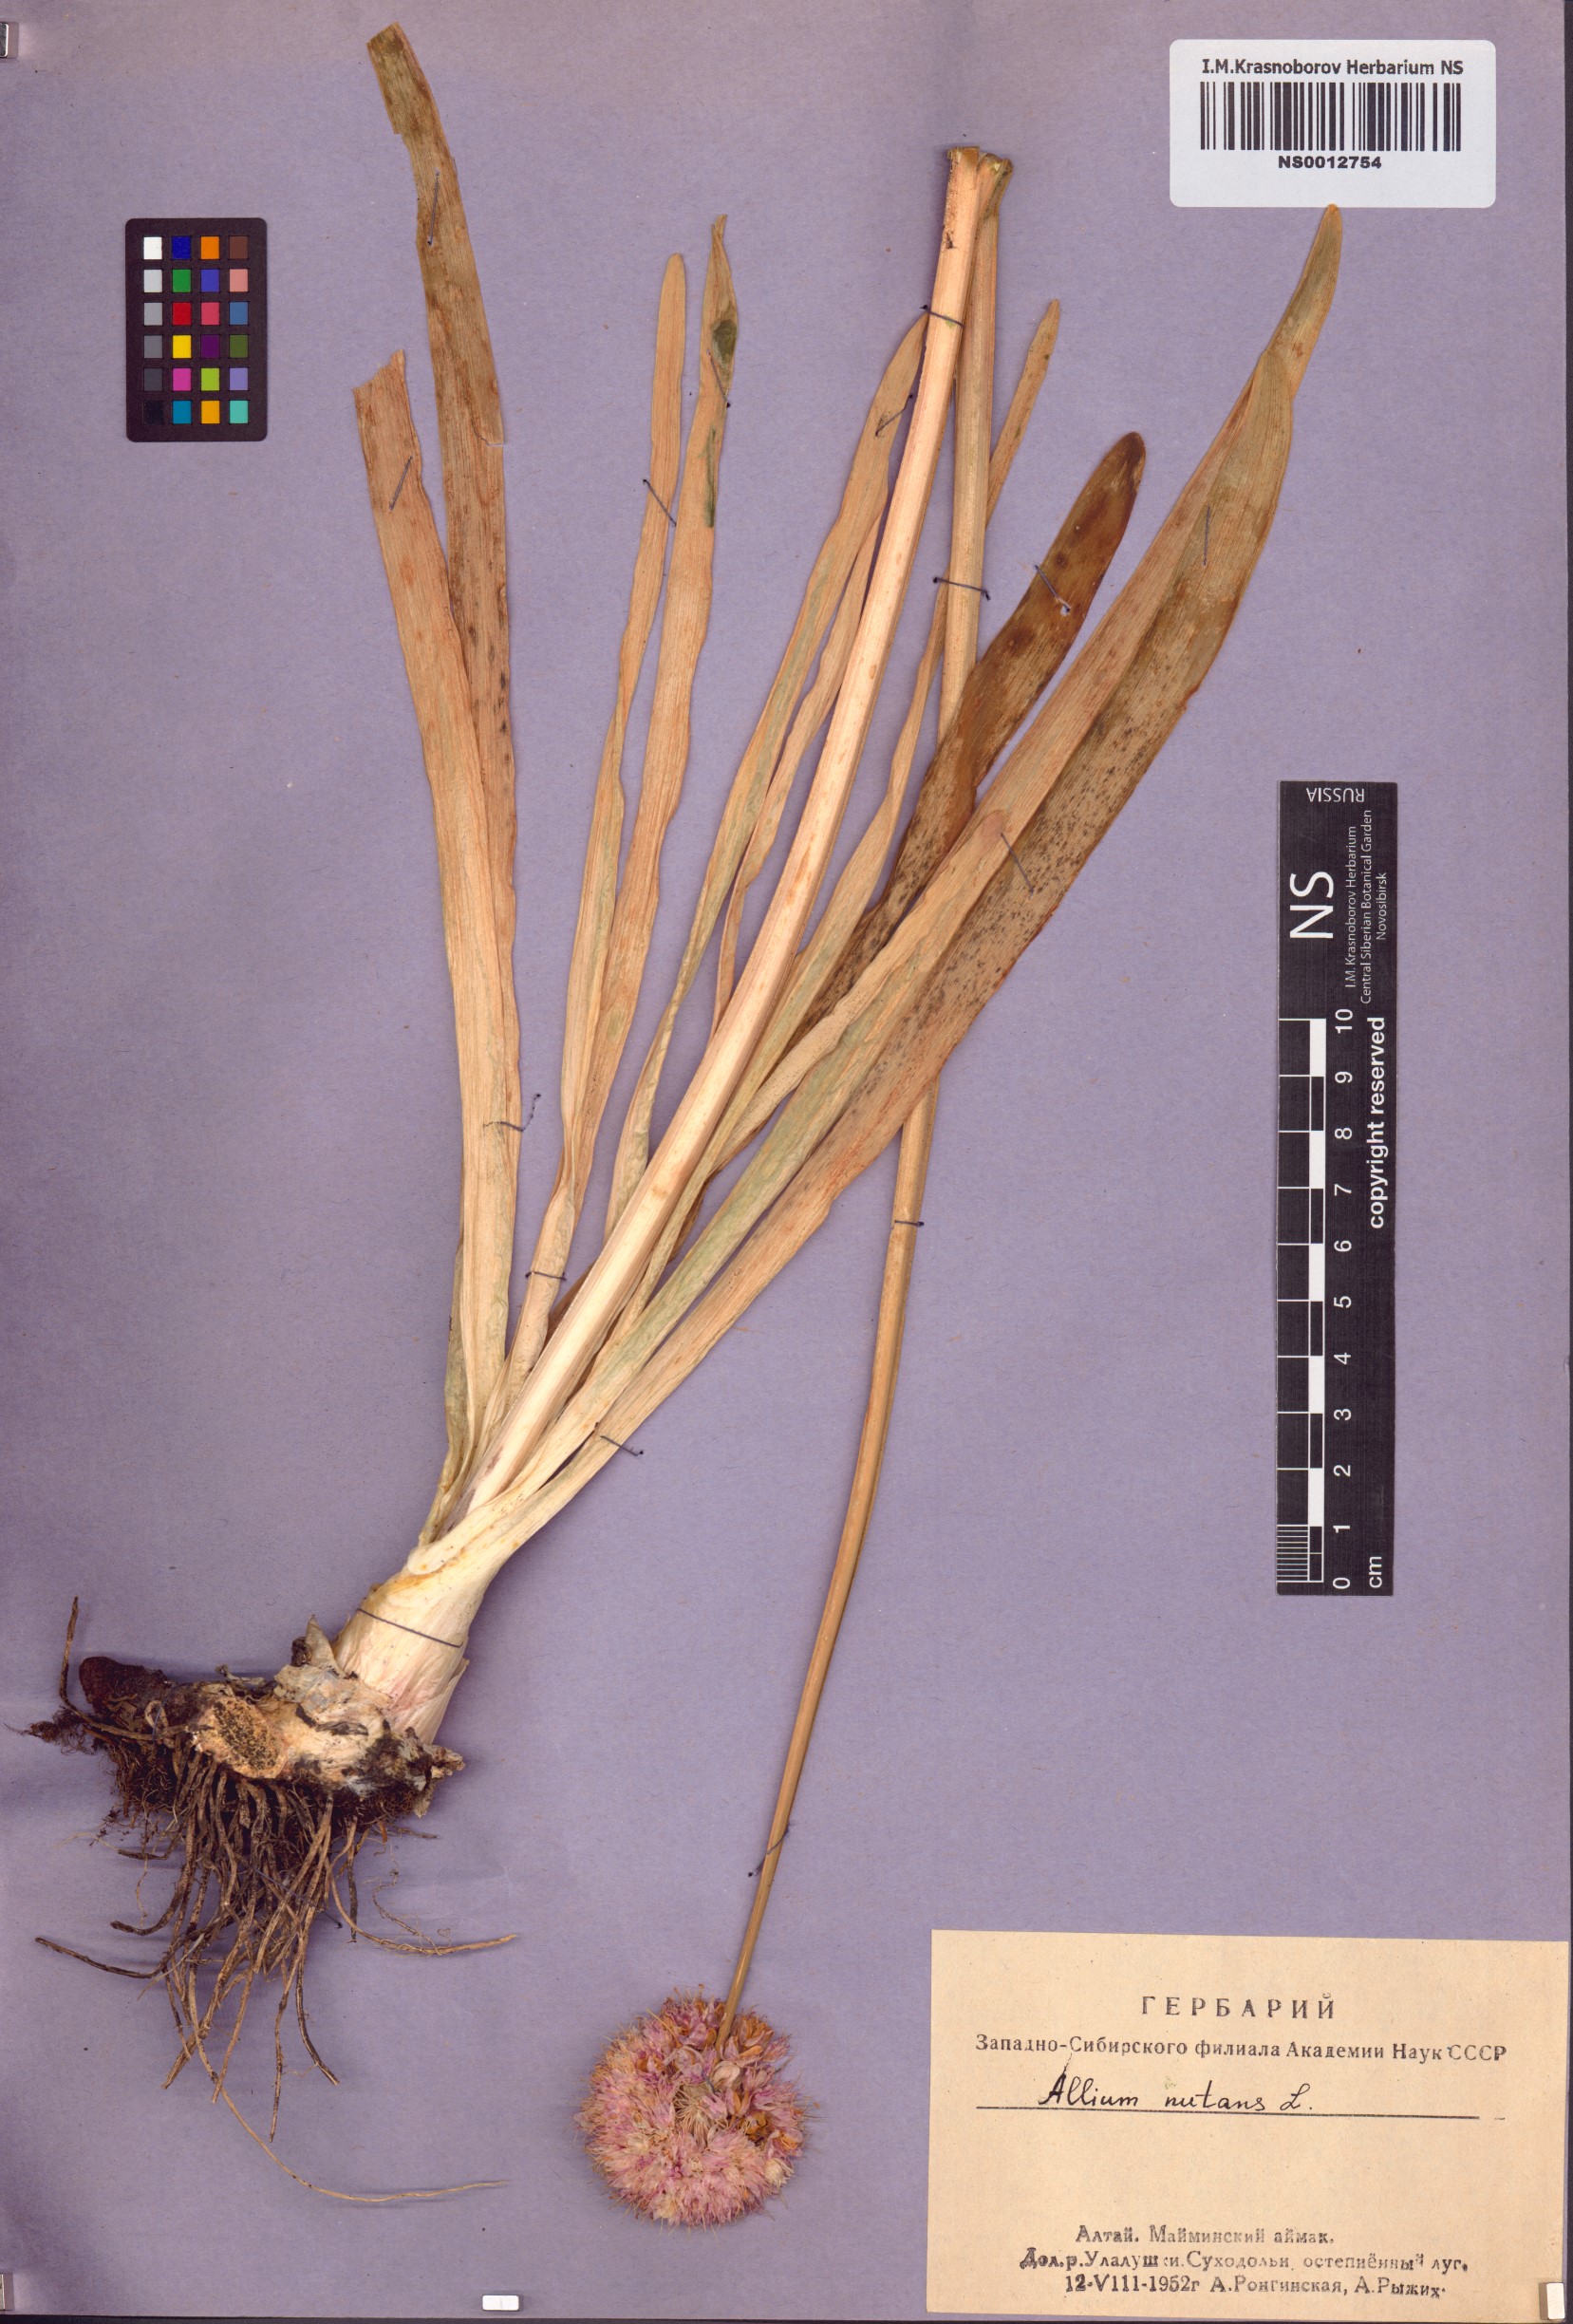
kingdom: Plantae
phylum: Tracheophyta
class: Liliopsida
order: Asparagales
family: Amaryllidaceae
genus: Allium
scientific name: Allium nutans
